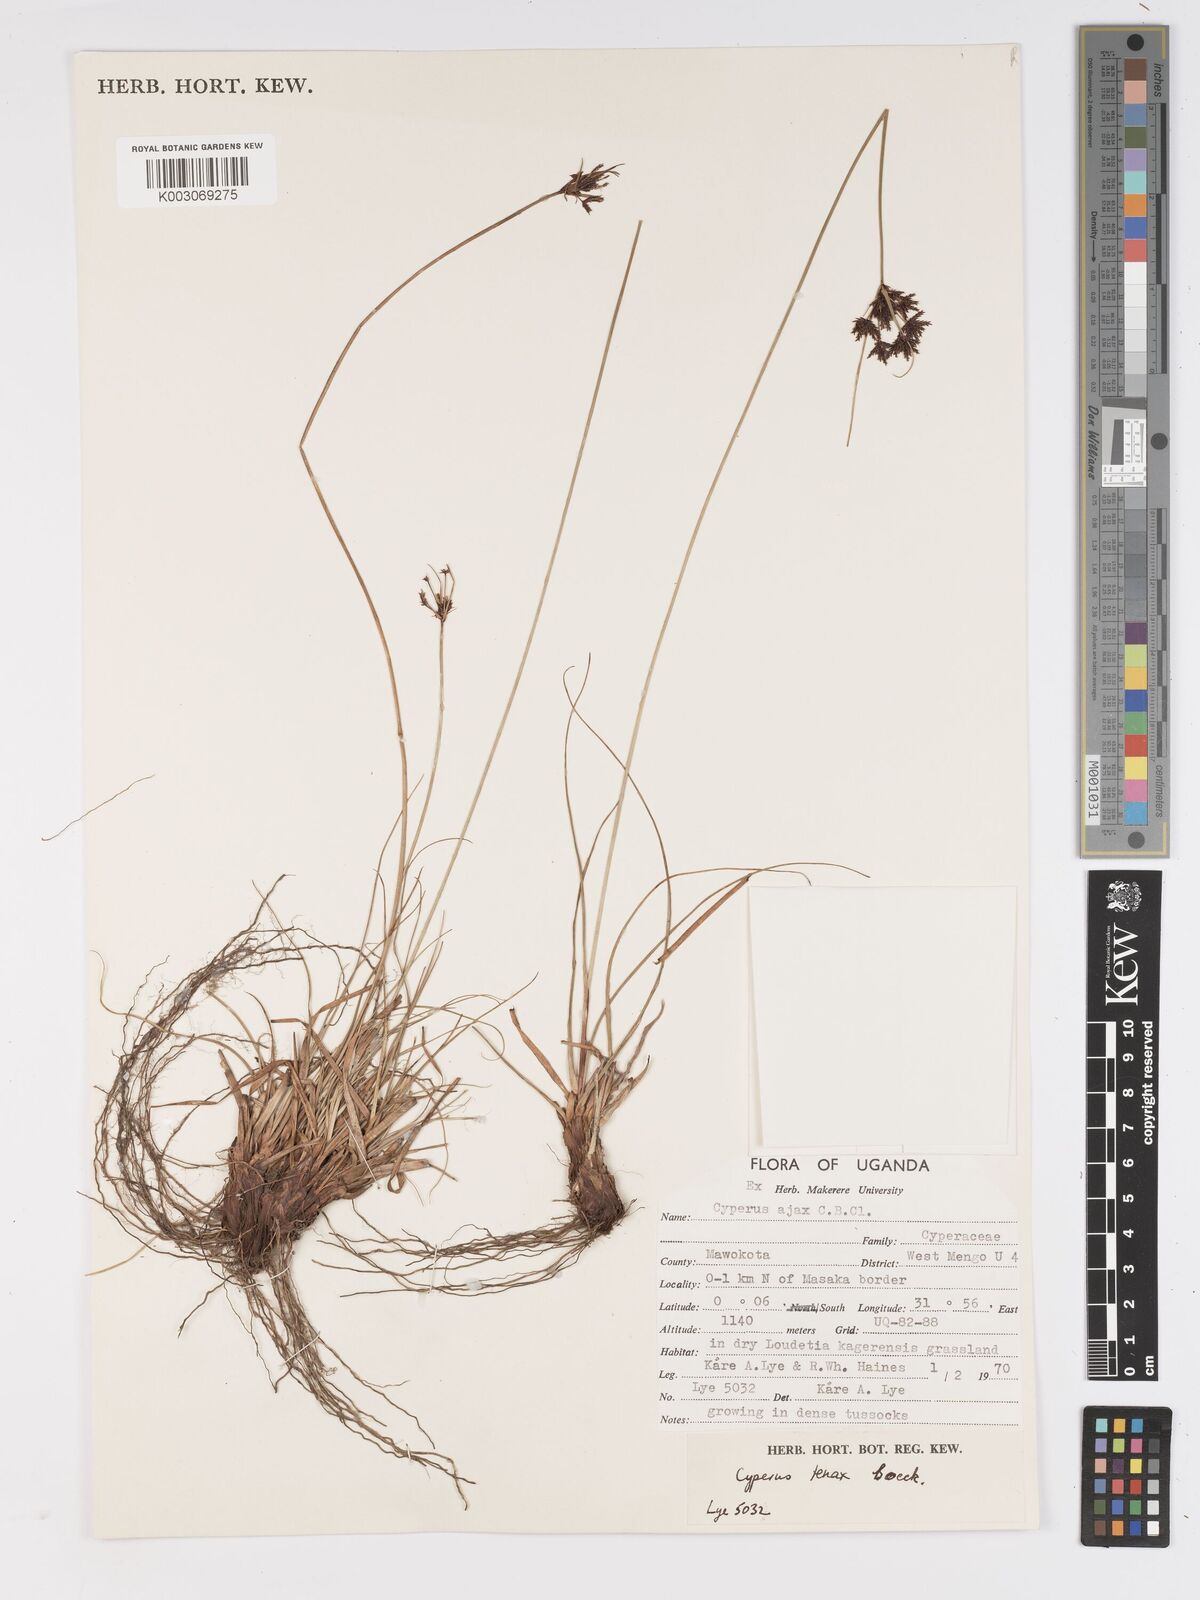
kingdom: Plantae
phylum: Tracheophyta
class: Liliopsida
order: Poales
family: Cyperaceae
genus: Cyperus
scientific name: Cyperus tenax
